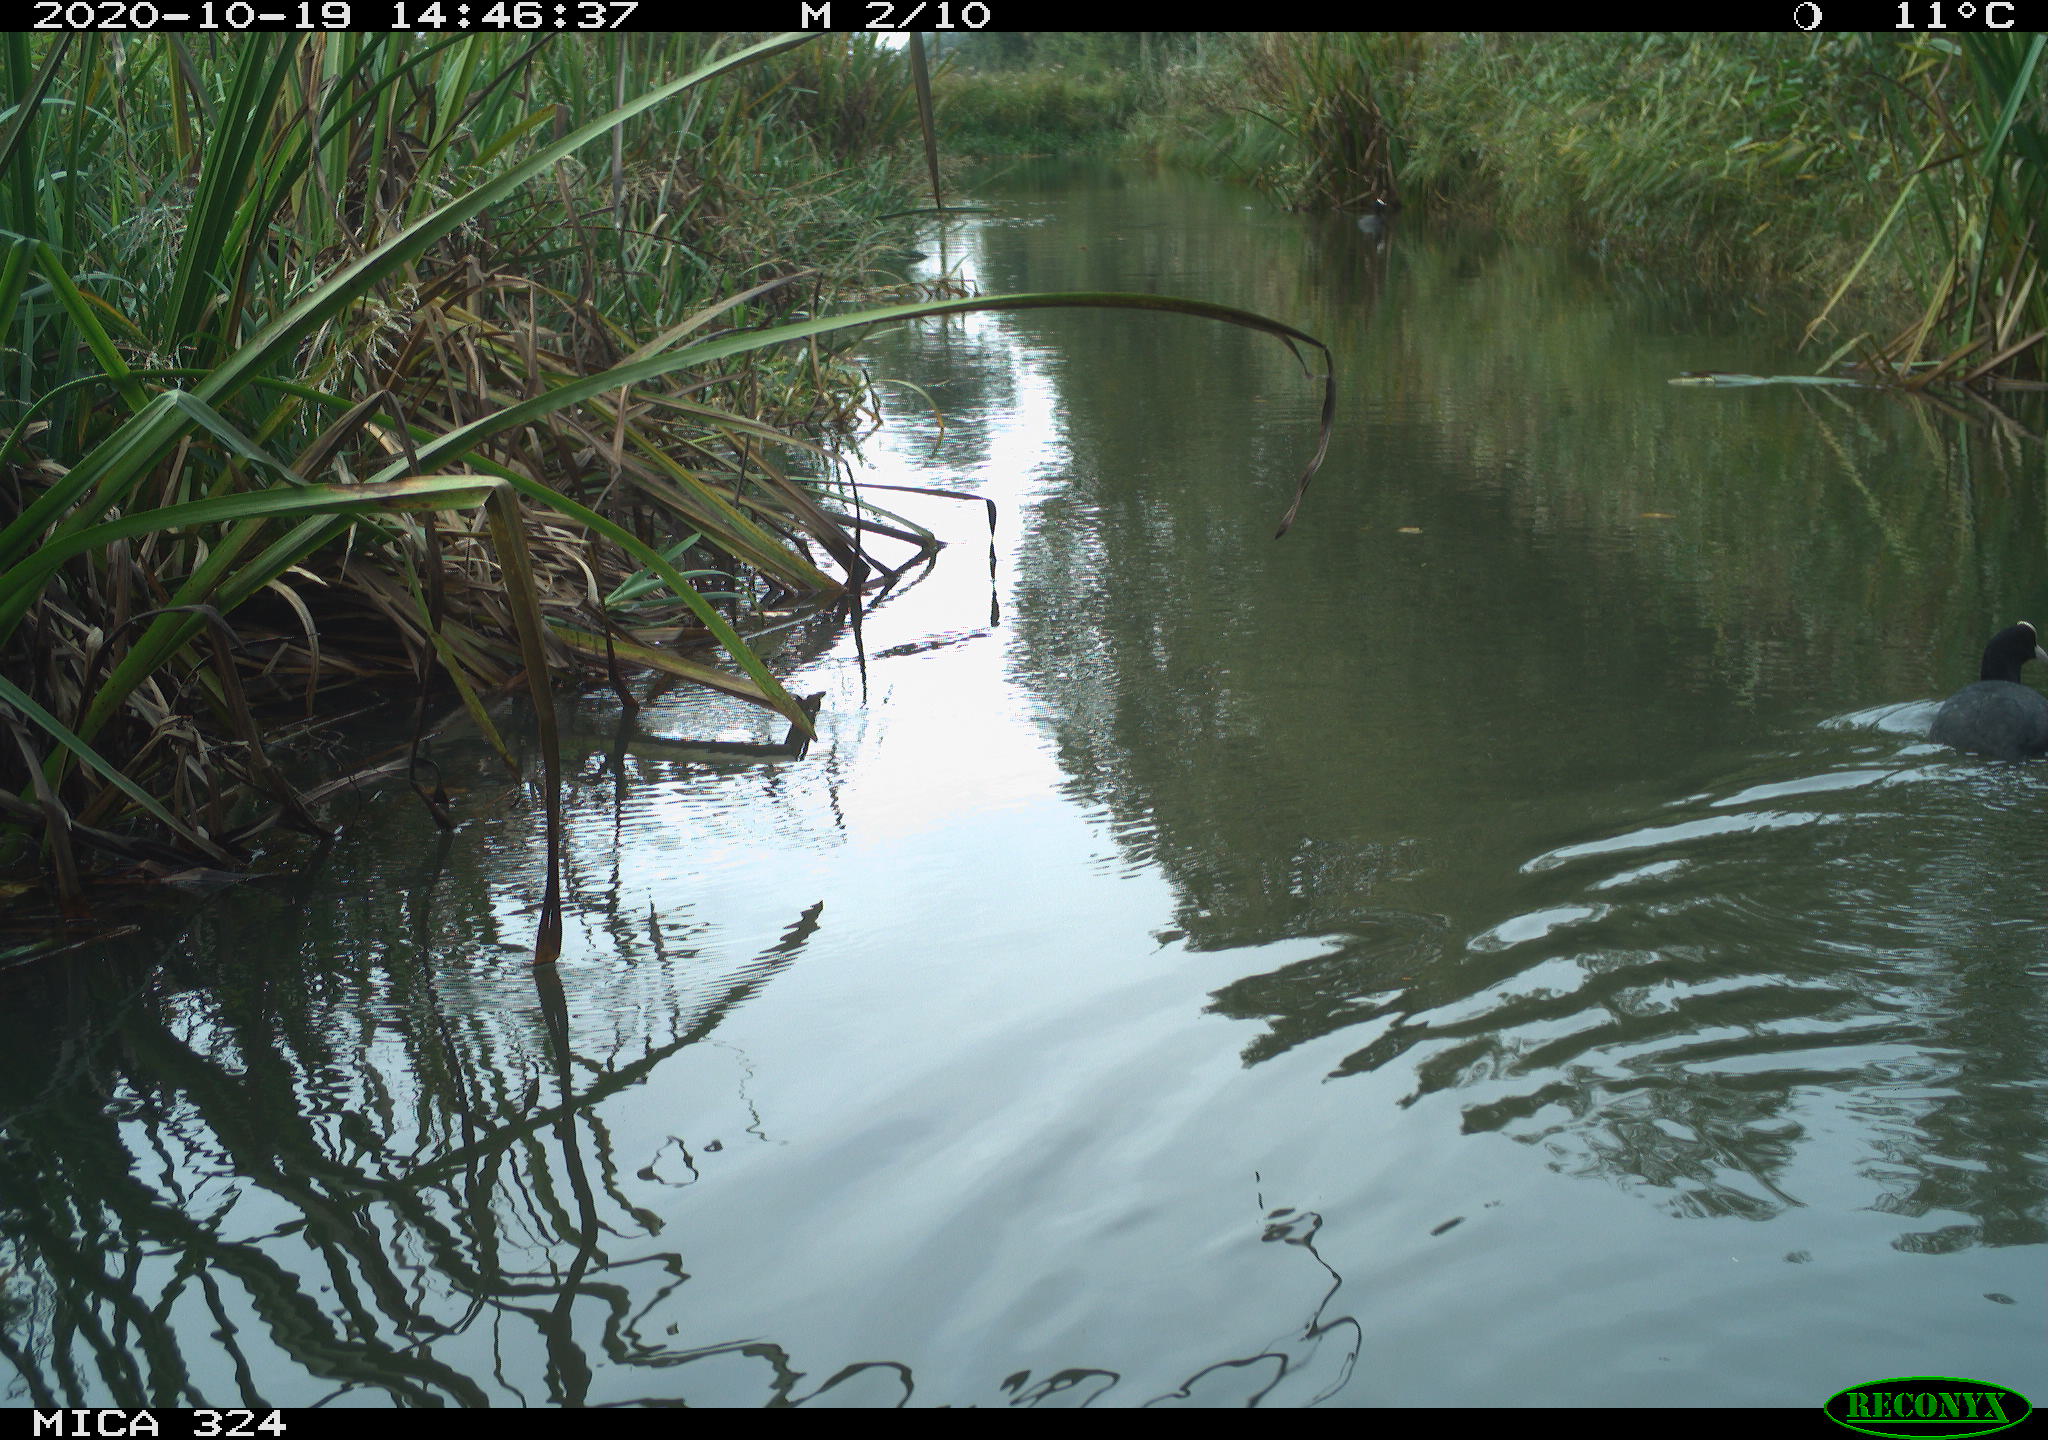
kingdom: Animalia
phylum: Chordata
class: Aves
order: Gruiformes
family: Rallidae
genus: Fulica
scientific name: Fulica atra
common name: Eurasian coot
